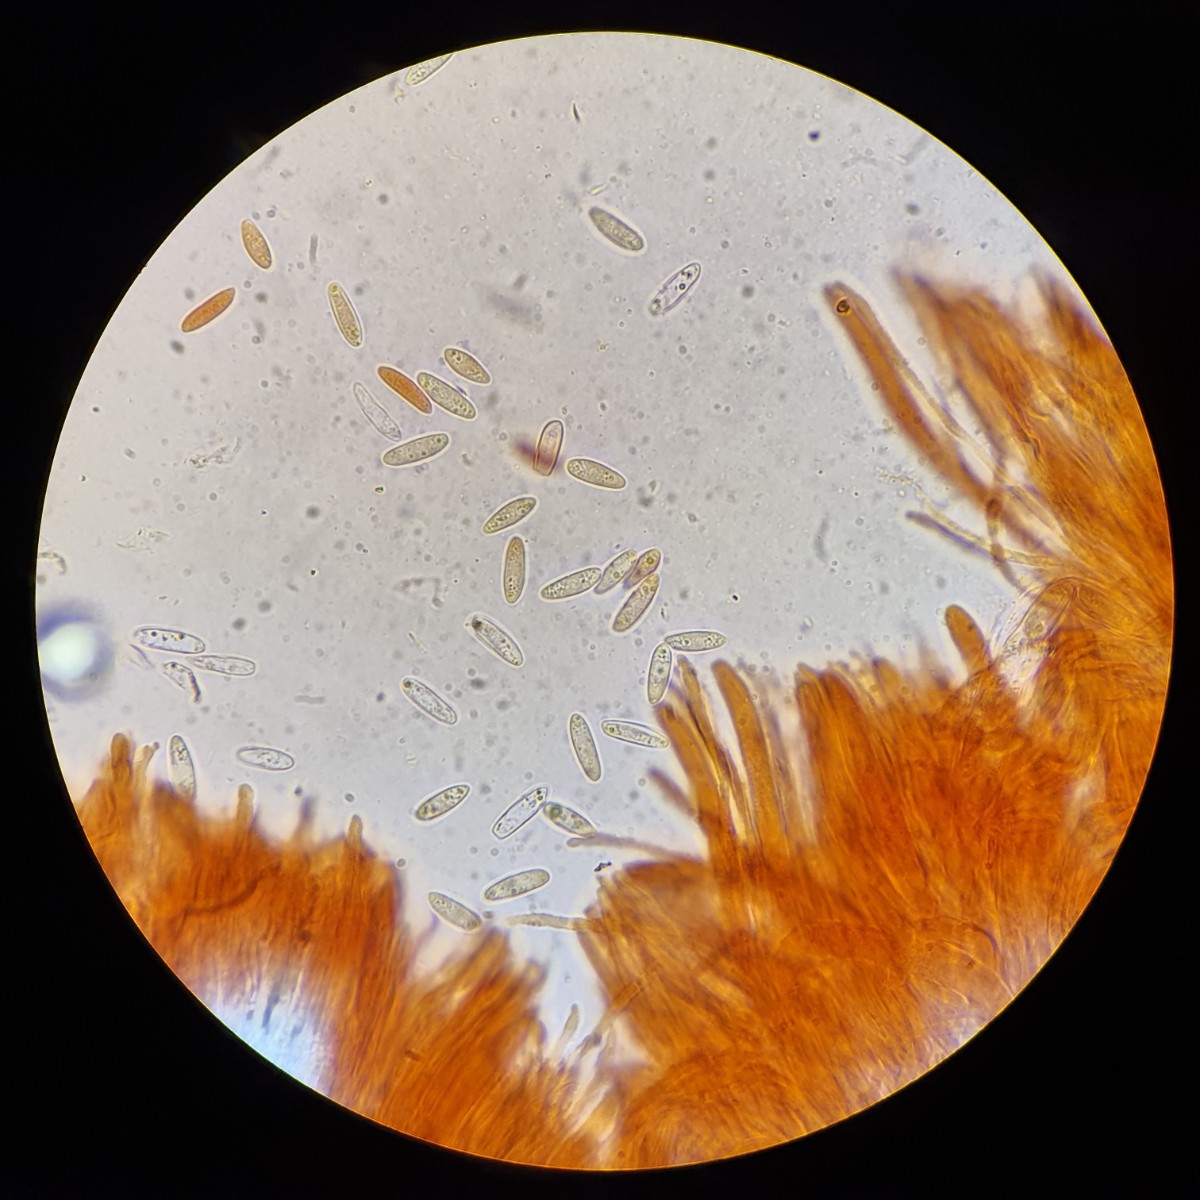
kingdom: Fungi
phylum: Ascomycota
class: Leotiomycetes
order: Helotiales
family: Helotiaceae
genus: Hymenoscyphus
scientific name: Hymenoscyphus calyculus
